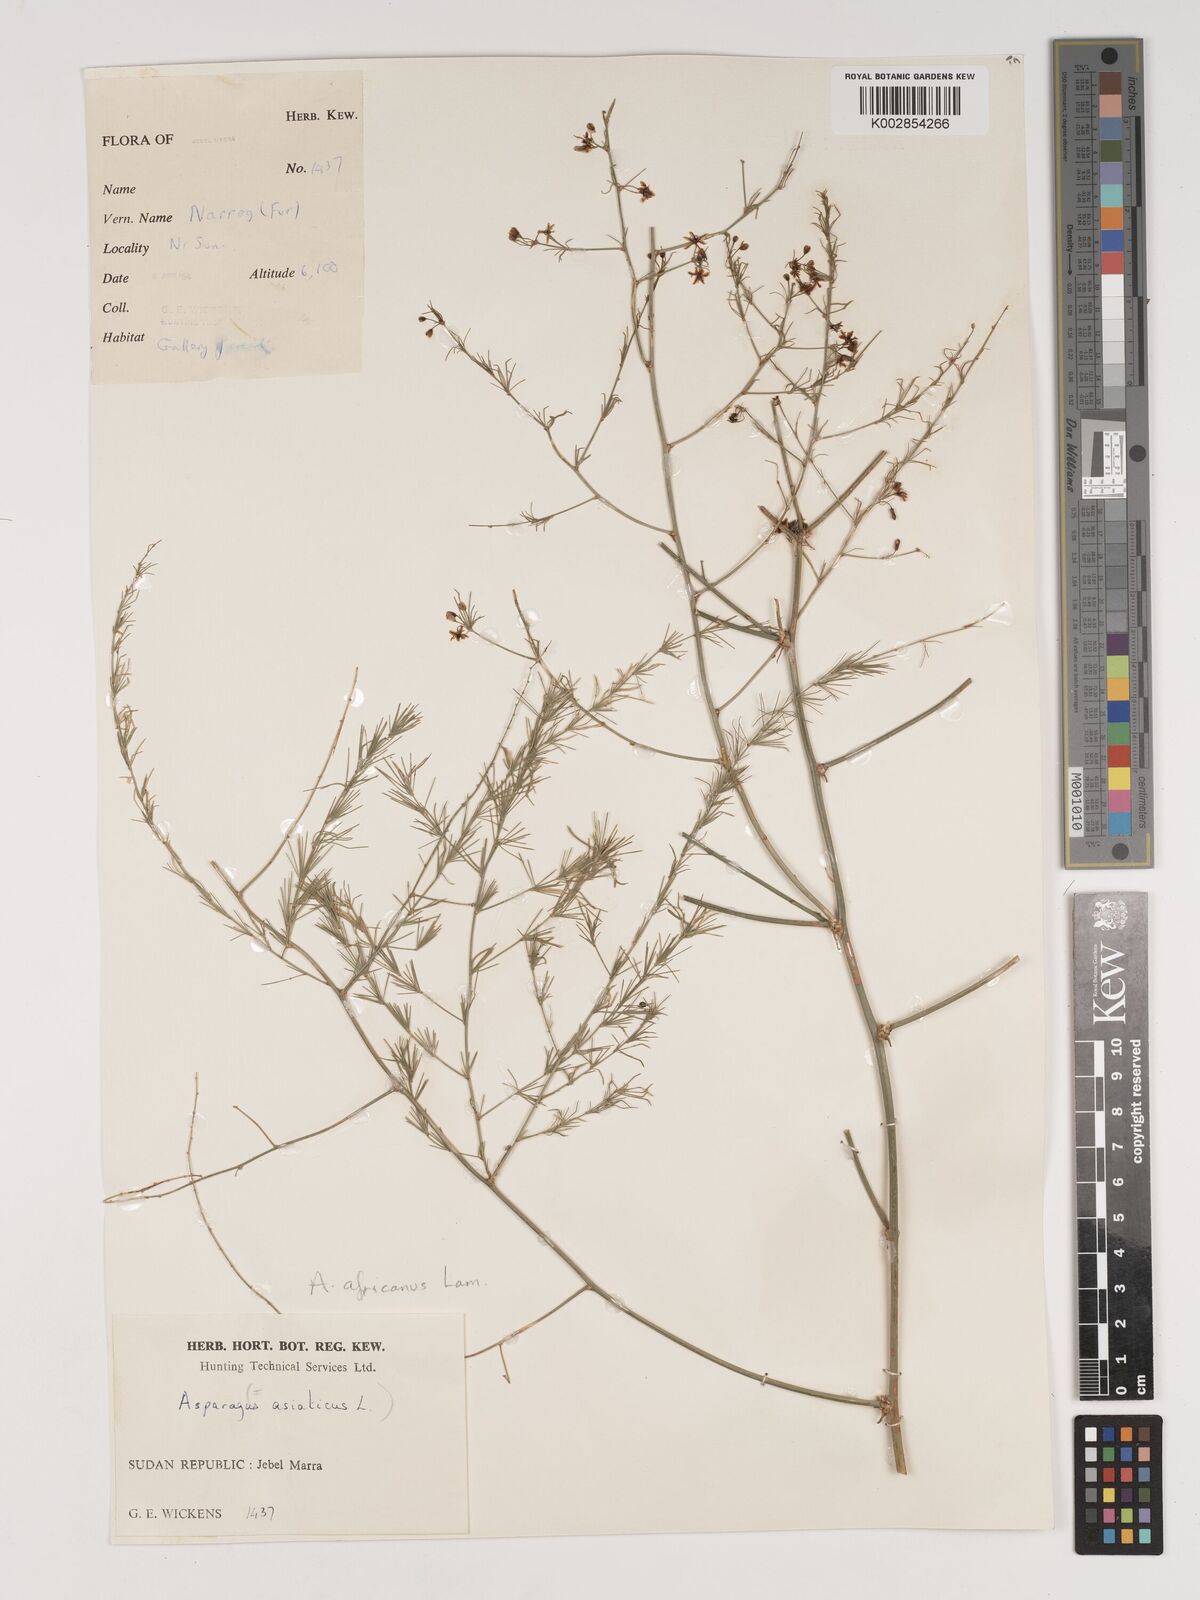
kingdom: Plantae
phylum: Tracheophyta
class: Liliopsida
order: Asparagales
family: Asparagaceae
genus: Asparagus
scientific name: Asparagus africanus
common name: Asparagus-fern
